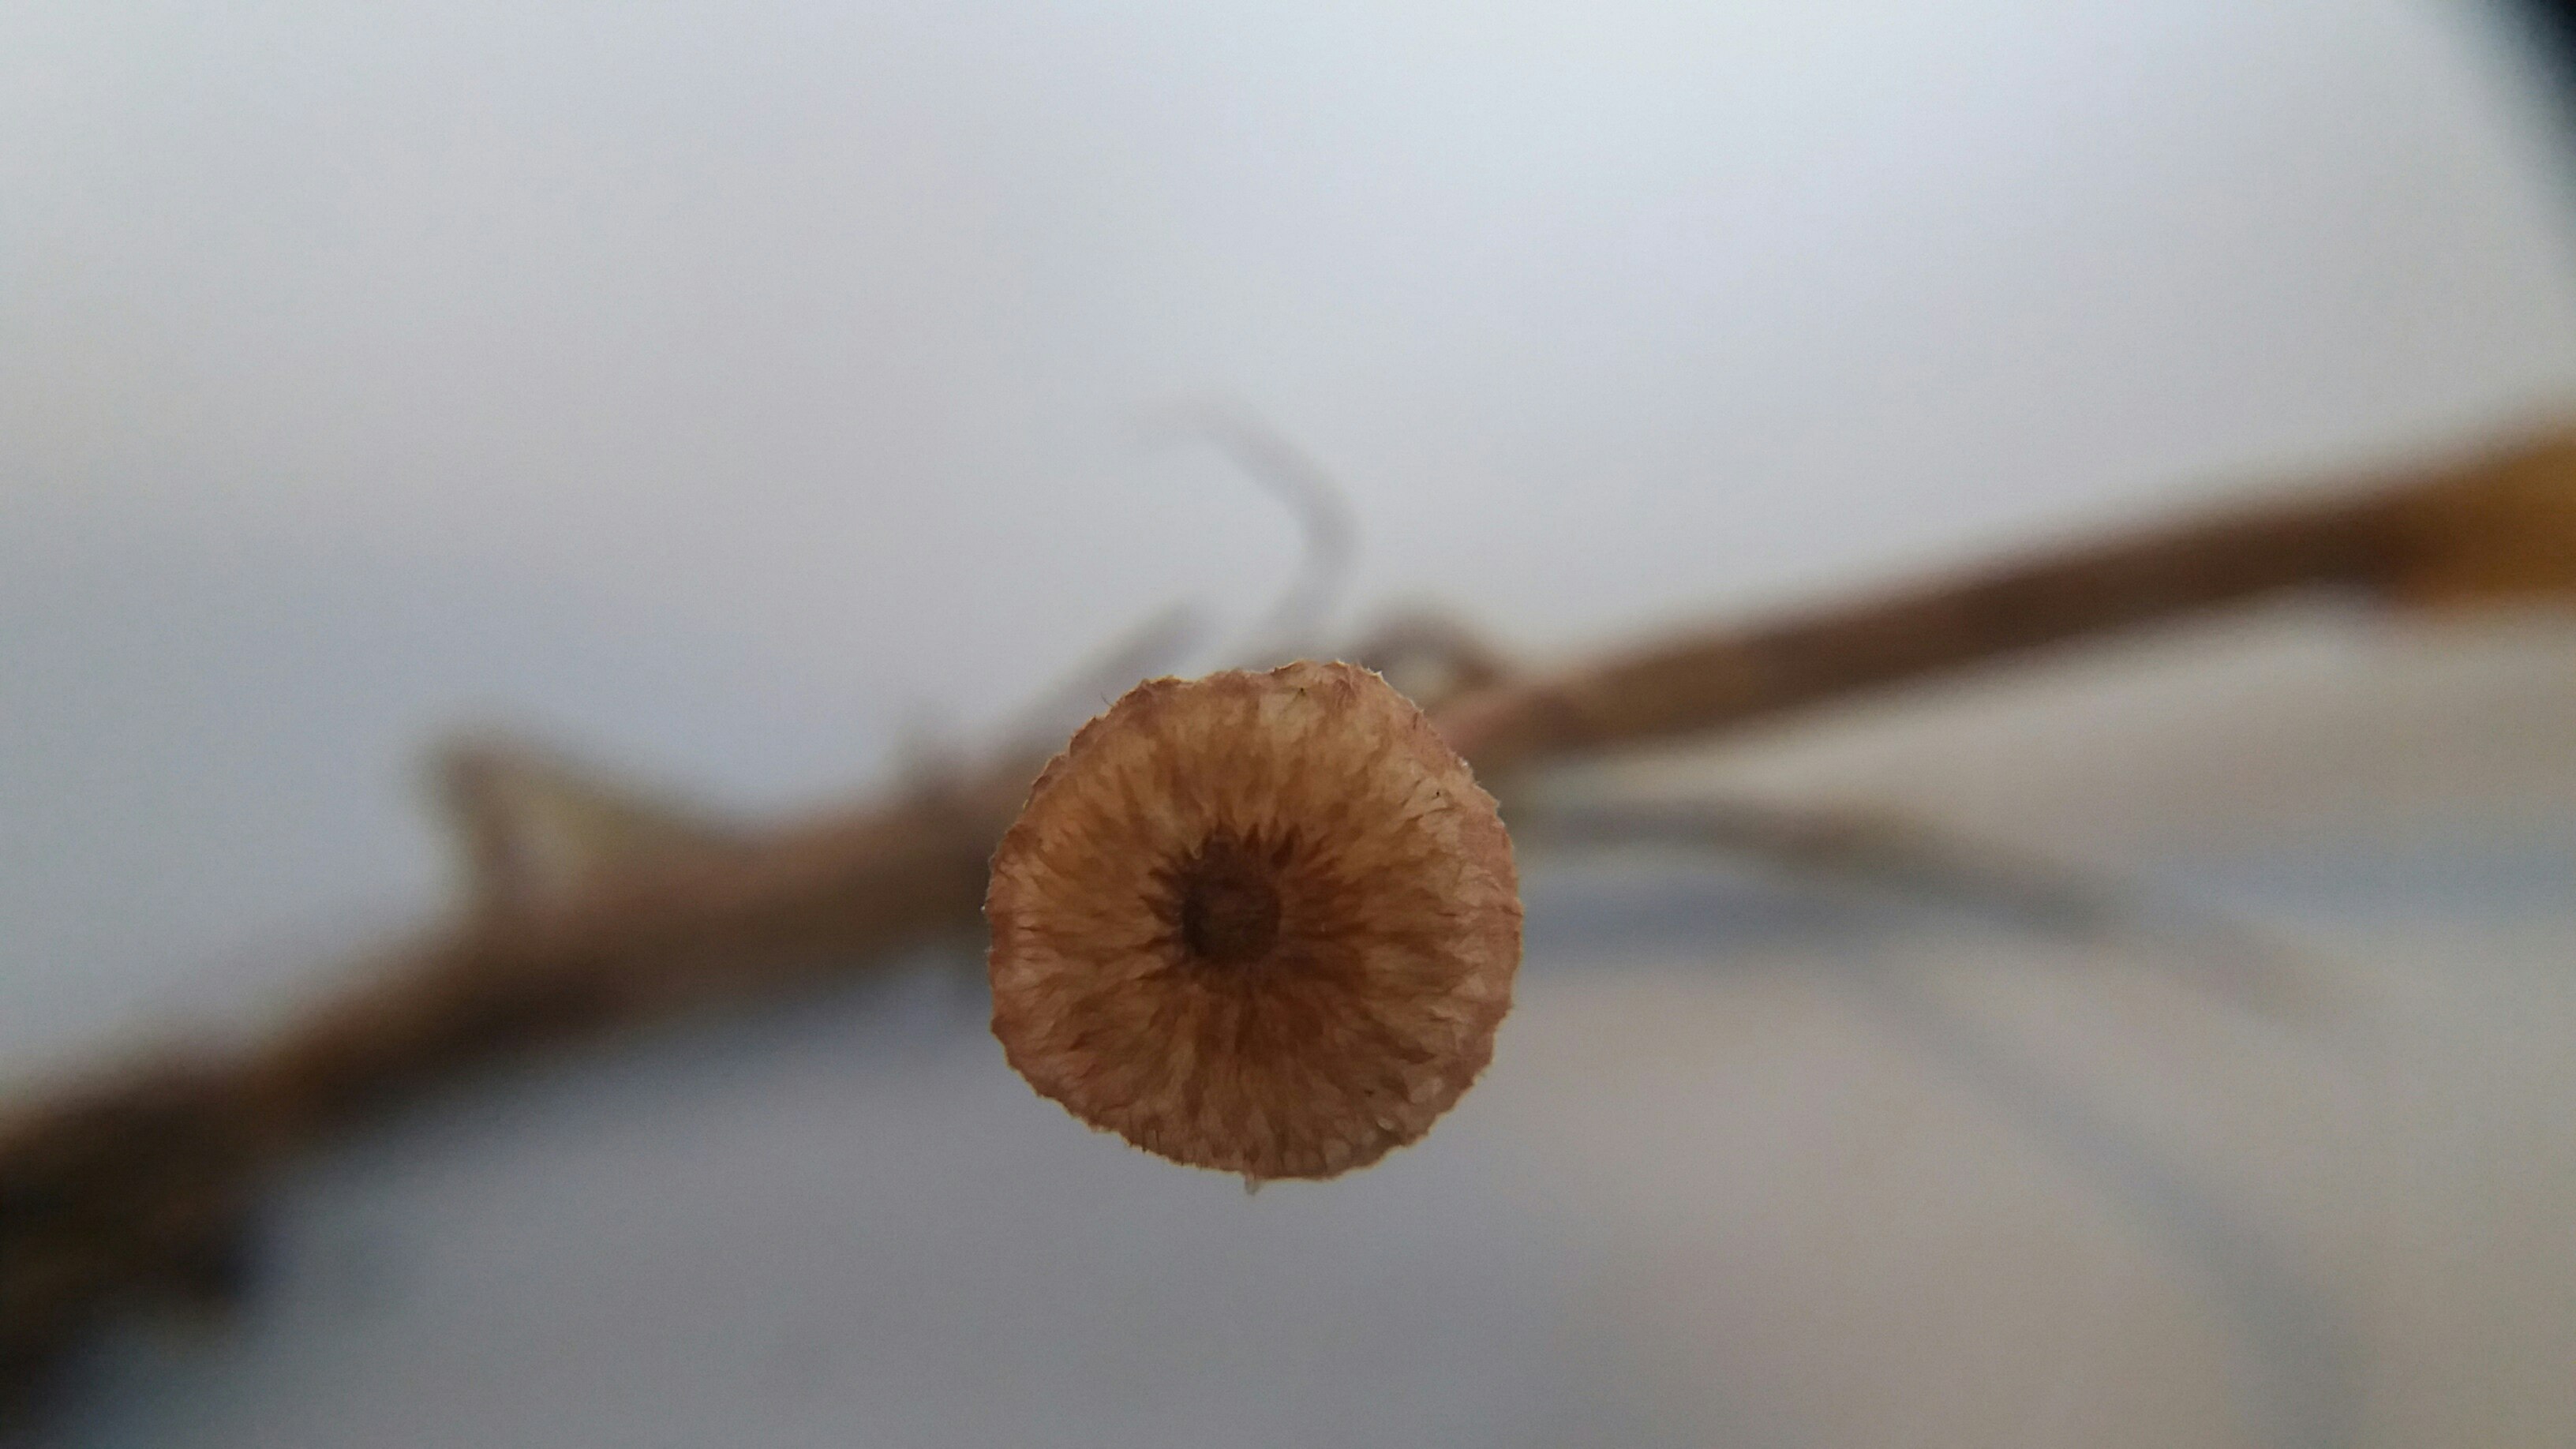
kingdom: Fungi
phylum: Basidiomycota
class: Agaricomycetes
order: Agaricales
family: Marasmiaceae
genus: Crinipellis
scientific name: Crinipellis scabella
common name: børstefod
